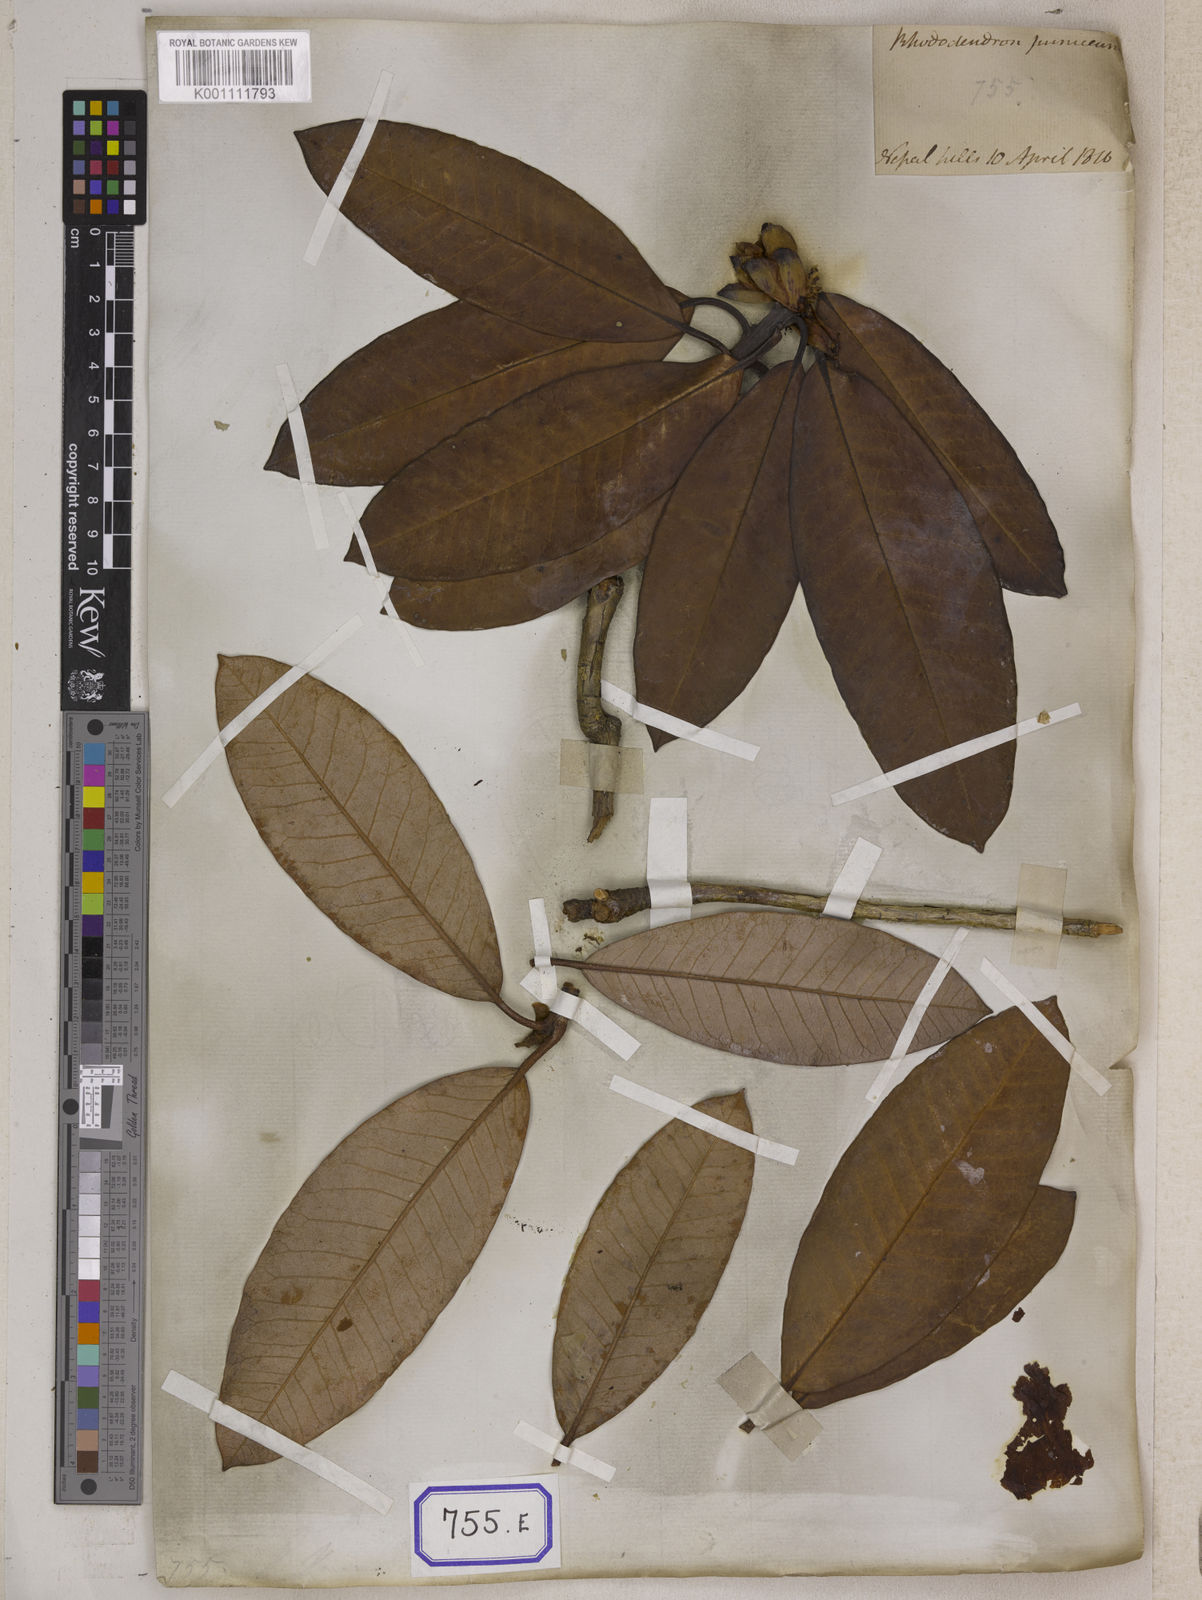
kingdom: Plantae
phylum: Tracheophyta
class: Magnoliopsida
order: Ericales
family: Ericaceae
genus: Rhododendron
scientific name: Rhododendron arboreum
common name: Tree rhododendron
